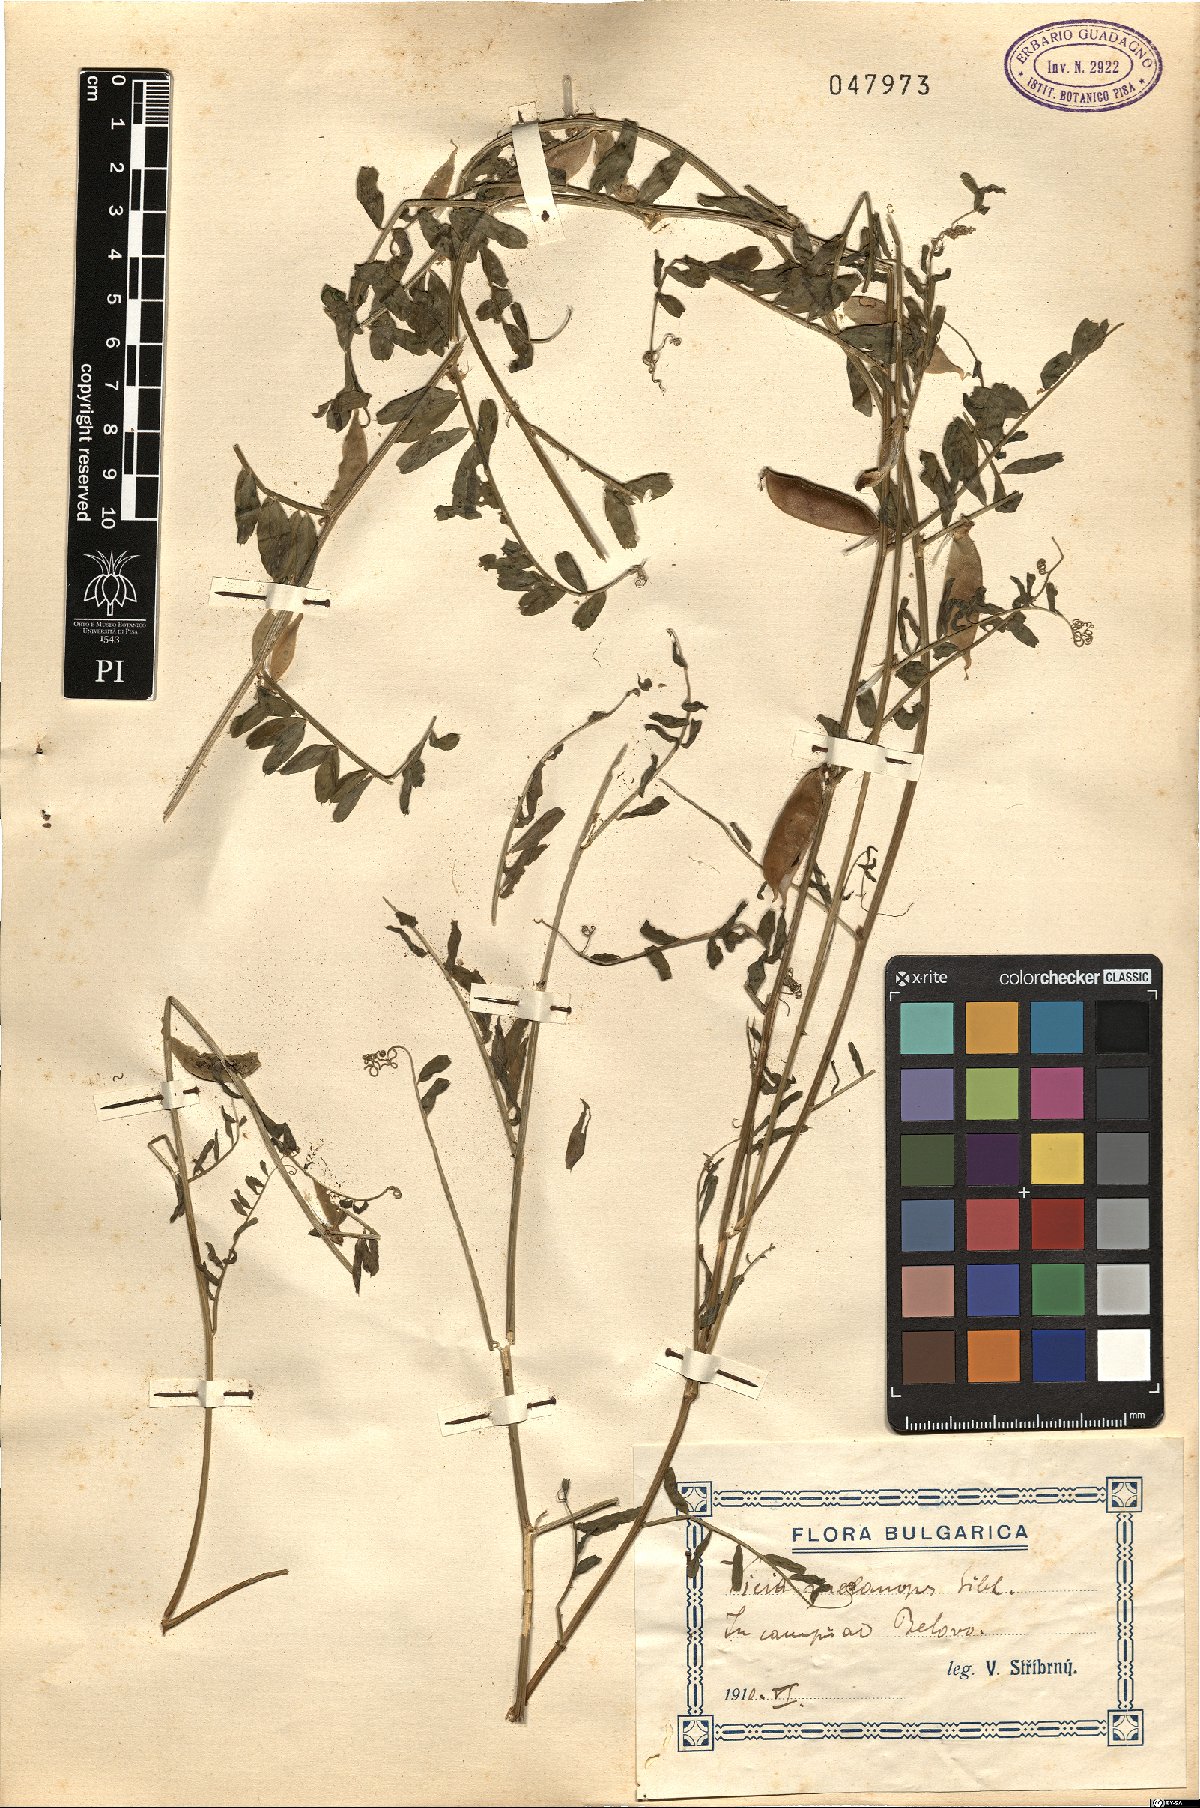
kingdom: Plantae
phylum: Tracheophyta
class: Magnoliopsida
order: Fabales
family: Fabaceae
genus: Vicia
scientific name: Vicia melanops
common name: Black-eyed vetch
